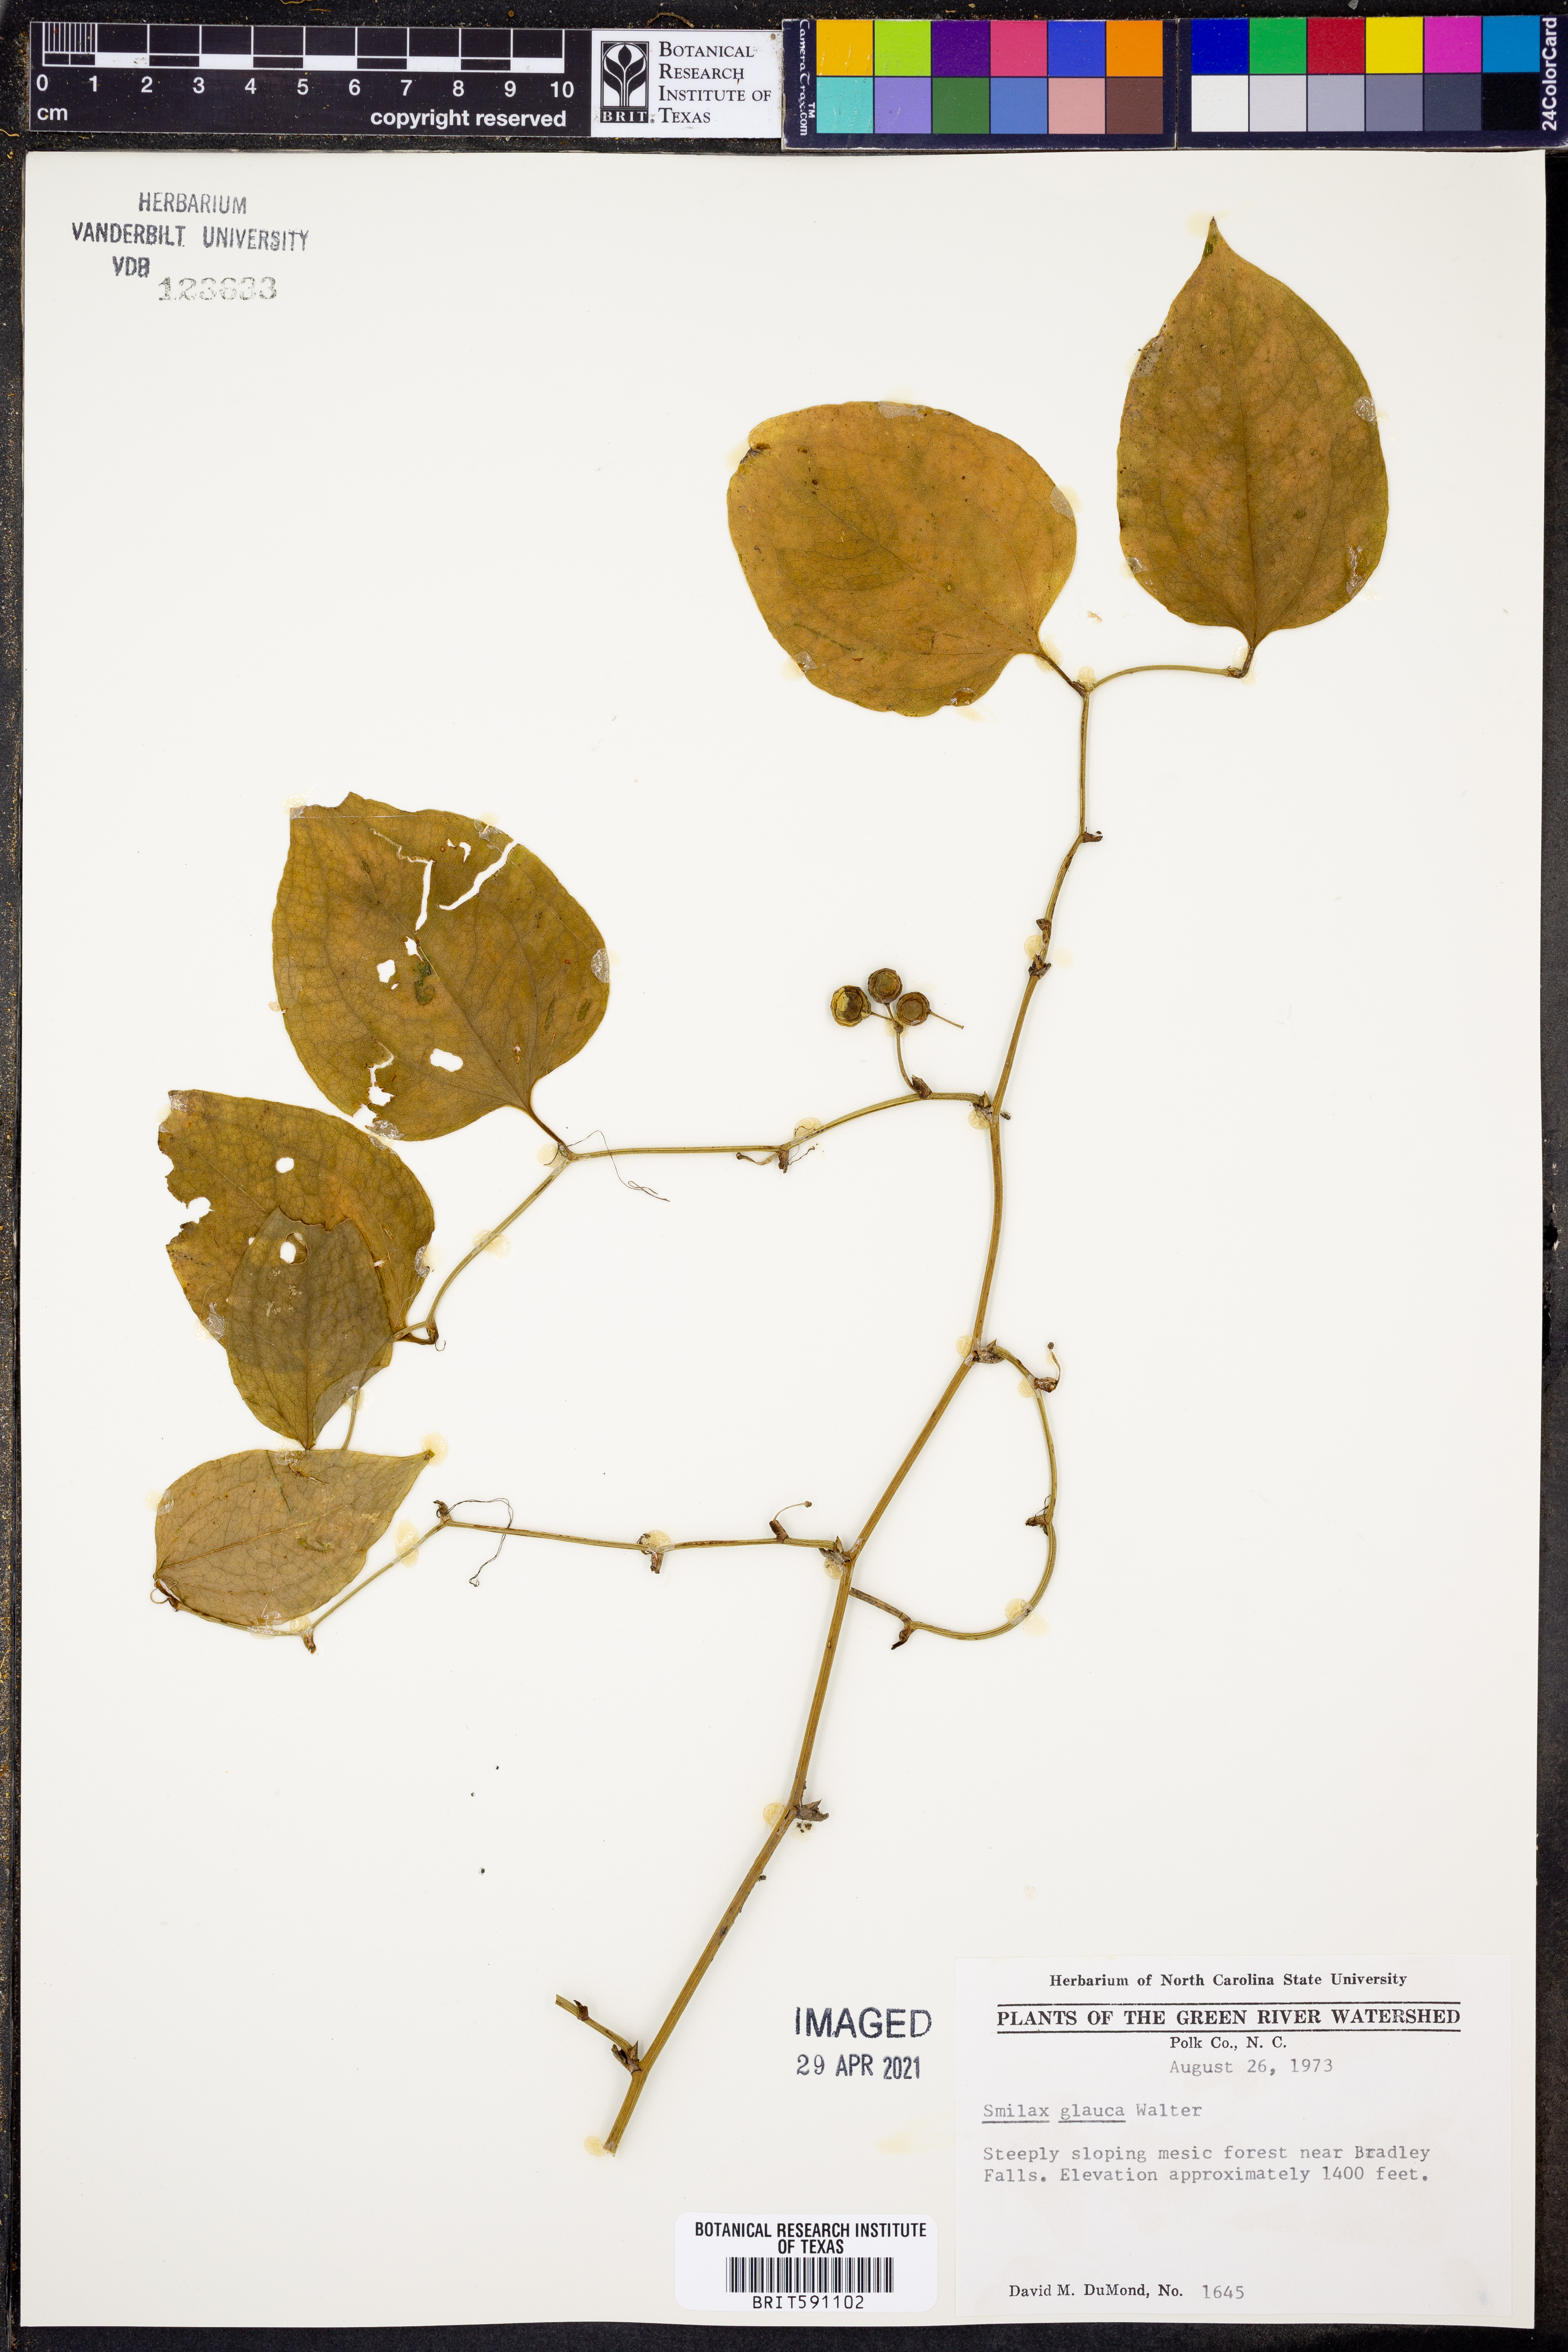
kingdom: Plantae
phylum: Tracheophyta
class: Liliopsida
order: Liliales
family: Smilacaceae
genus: Smilax
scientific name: Smilax glauca
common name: Cat greenbrier
